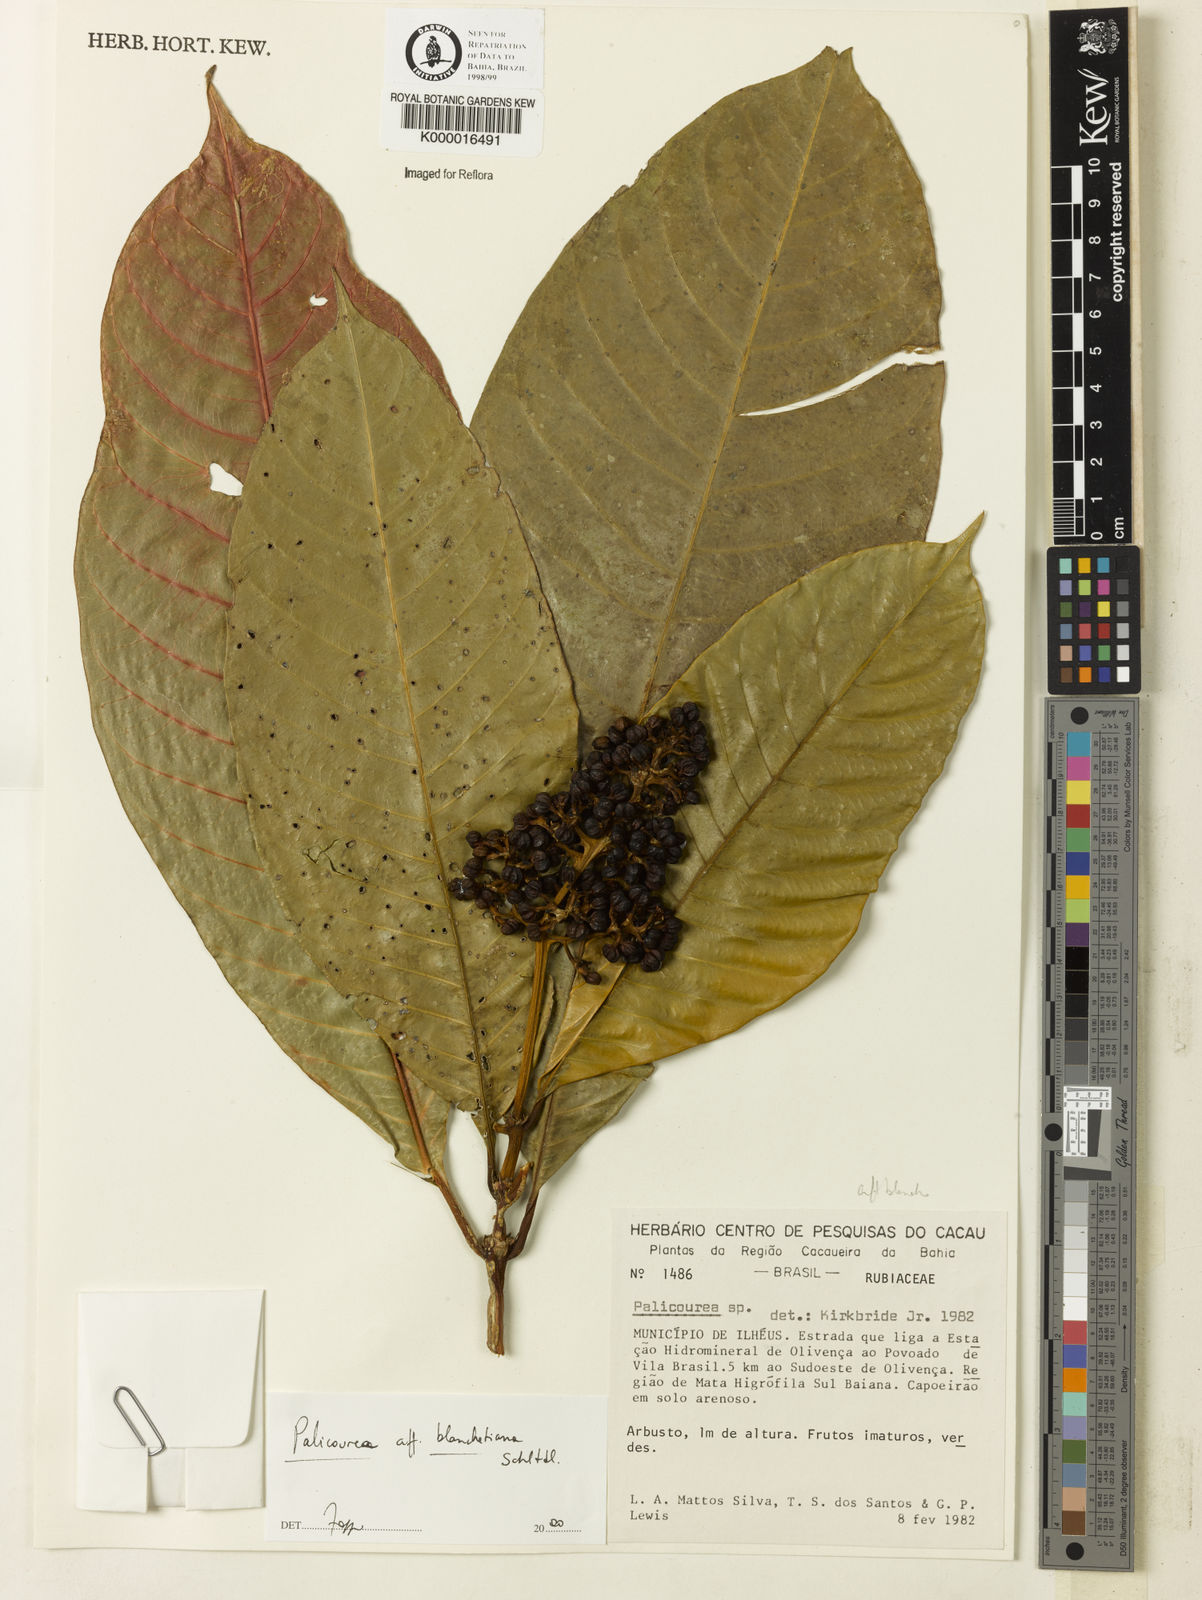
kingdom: Plantae
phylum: Tracheophyta
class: Magnoliopsida
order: Gentianales
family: Rubiaceae
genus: Palicourea
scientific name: Palicourea blanchetiana
